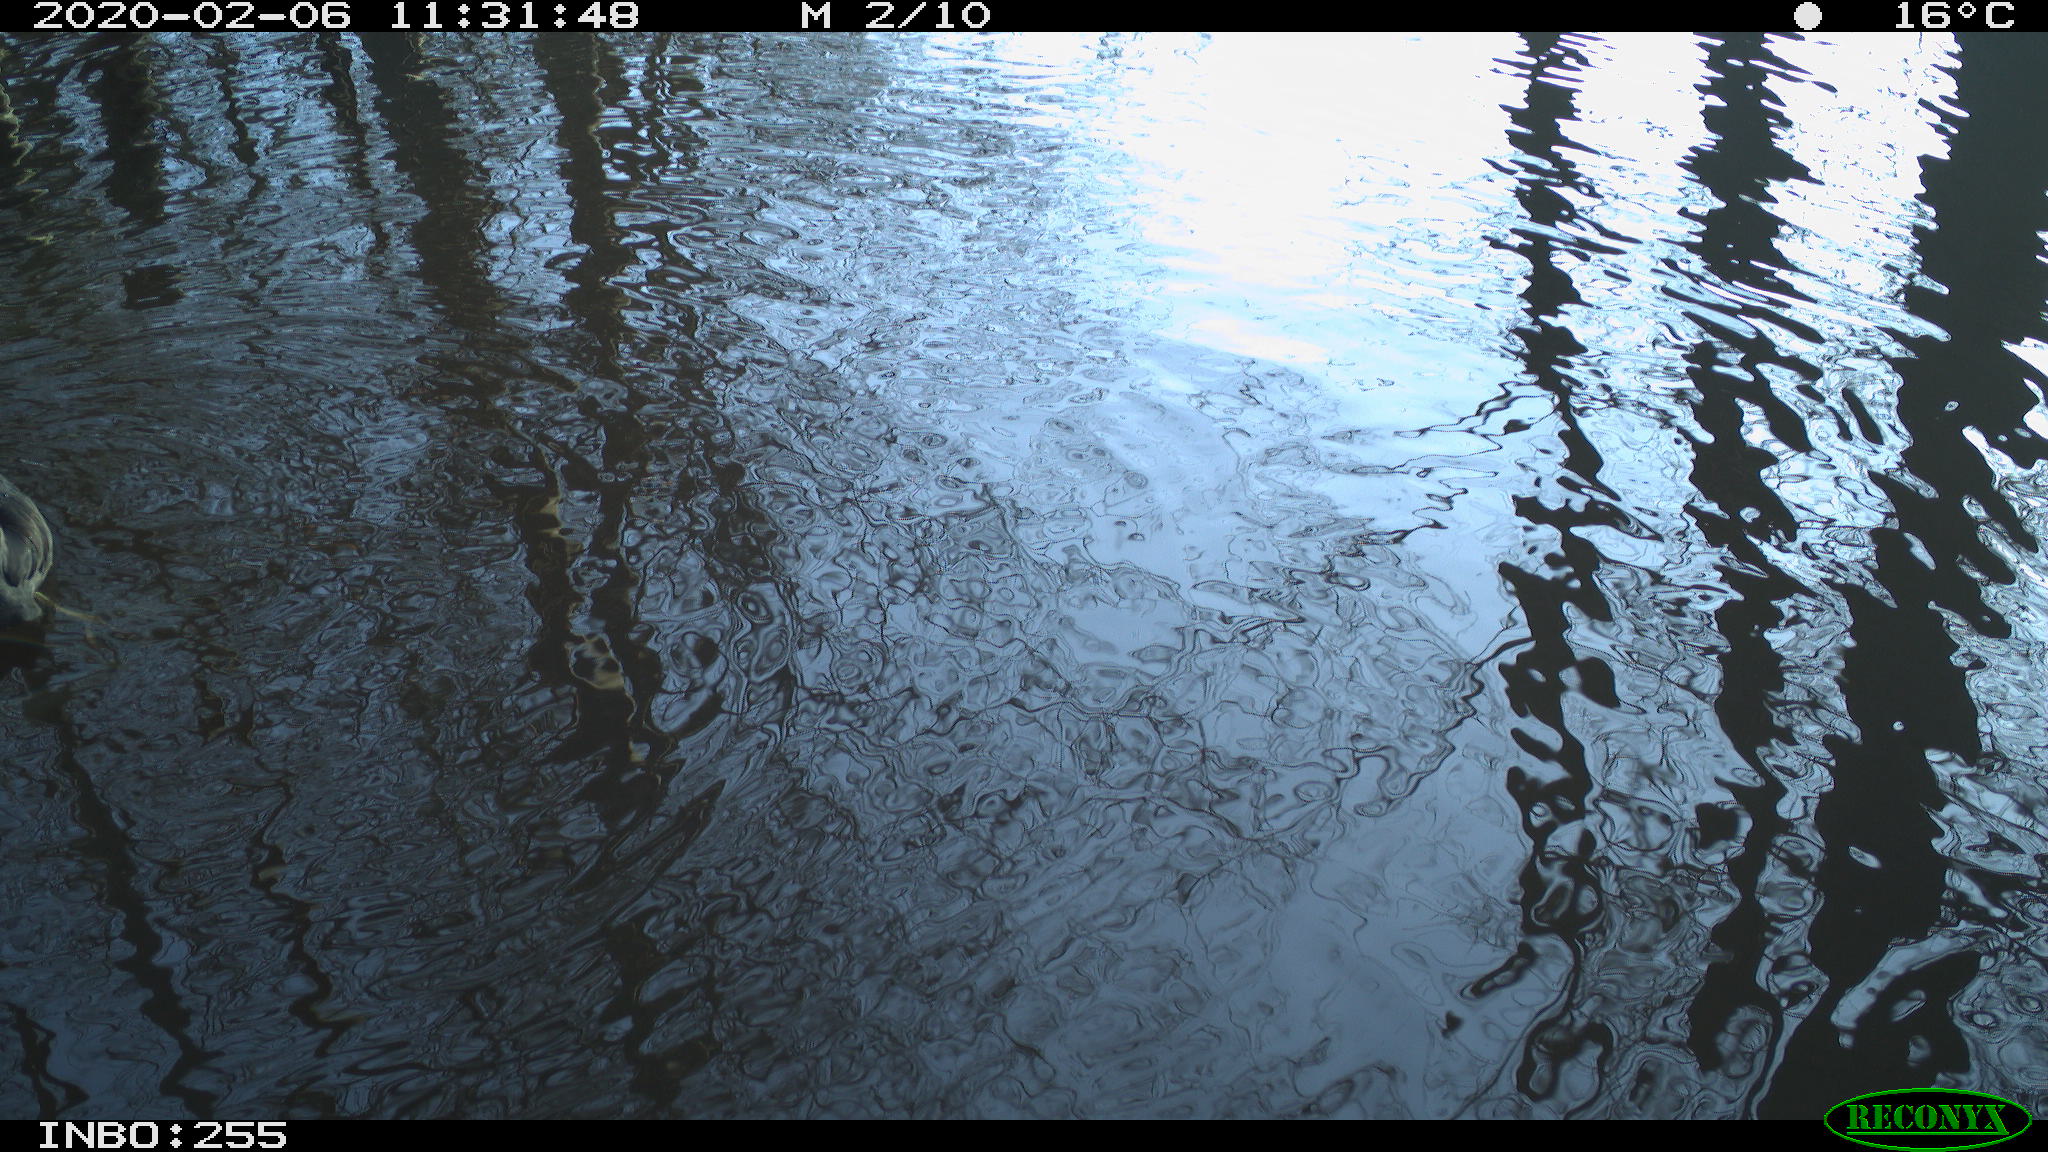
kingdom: Animalia
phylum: Chordata
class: Aves
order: Gruiformes
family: Rallidae
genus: Fulica
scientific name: Fulica atra
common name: Eurasian coot
